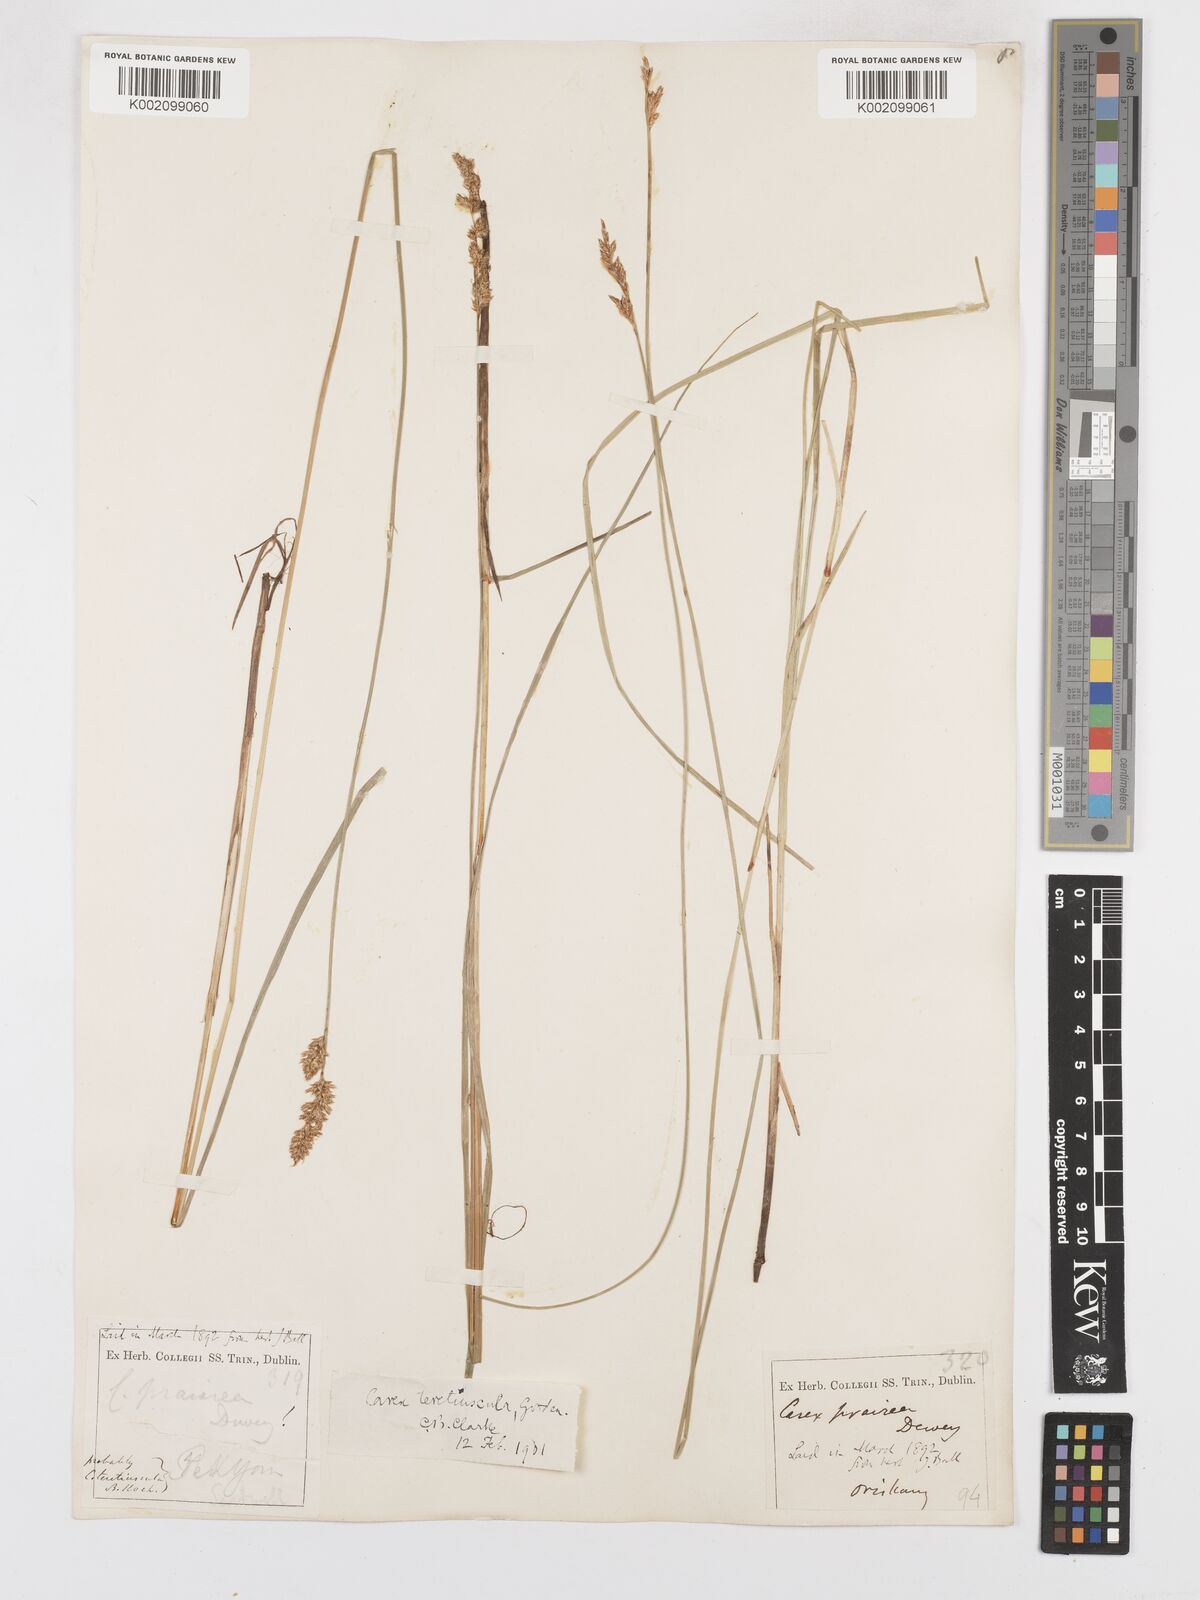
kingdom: Plantae
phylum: Tracheophyta
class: Liliopsida
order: Poales
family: Cyperaceae
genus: Carex
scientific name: Carex diandra
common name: Lesser tussock-sedge
